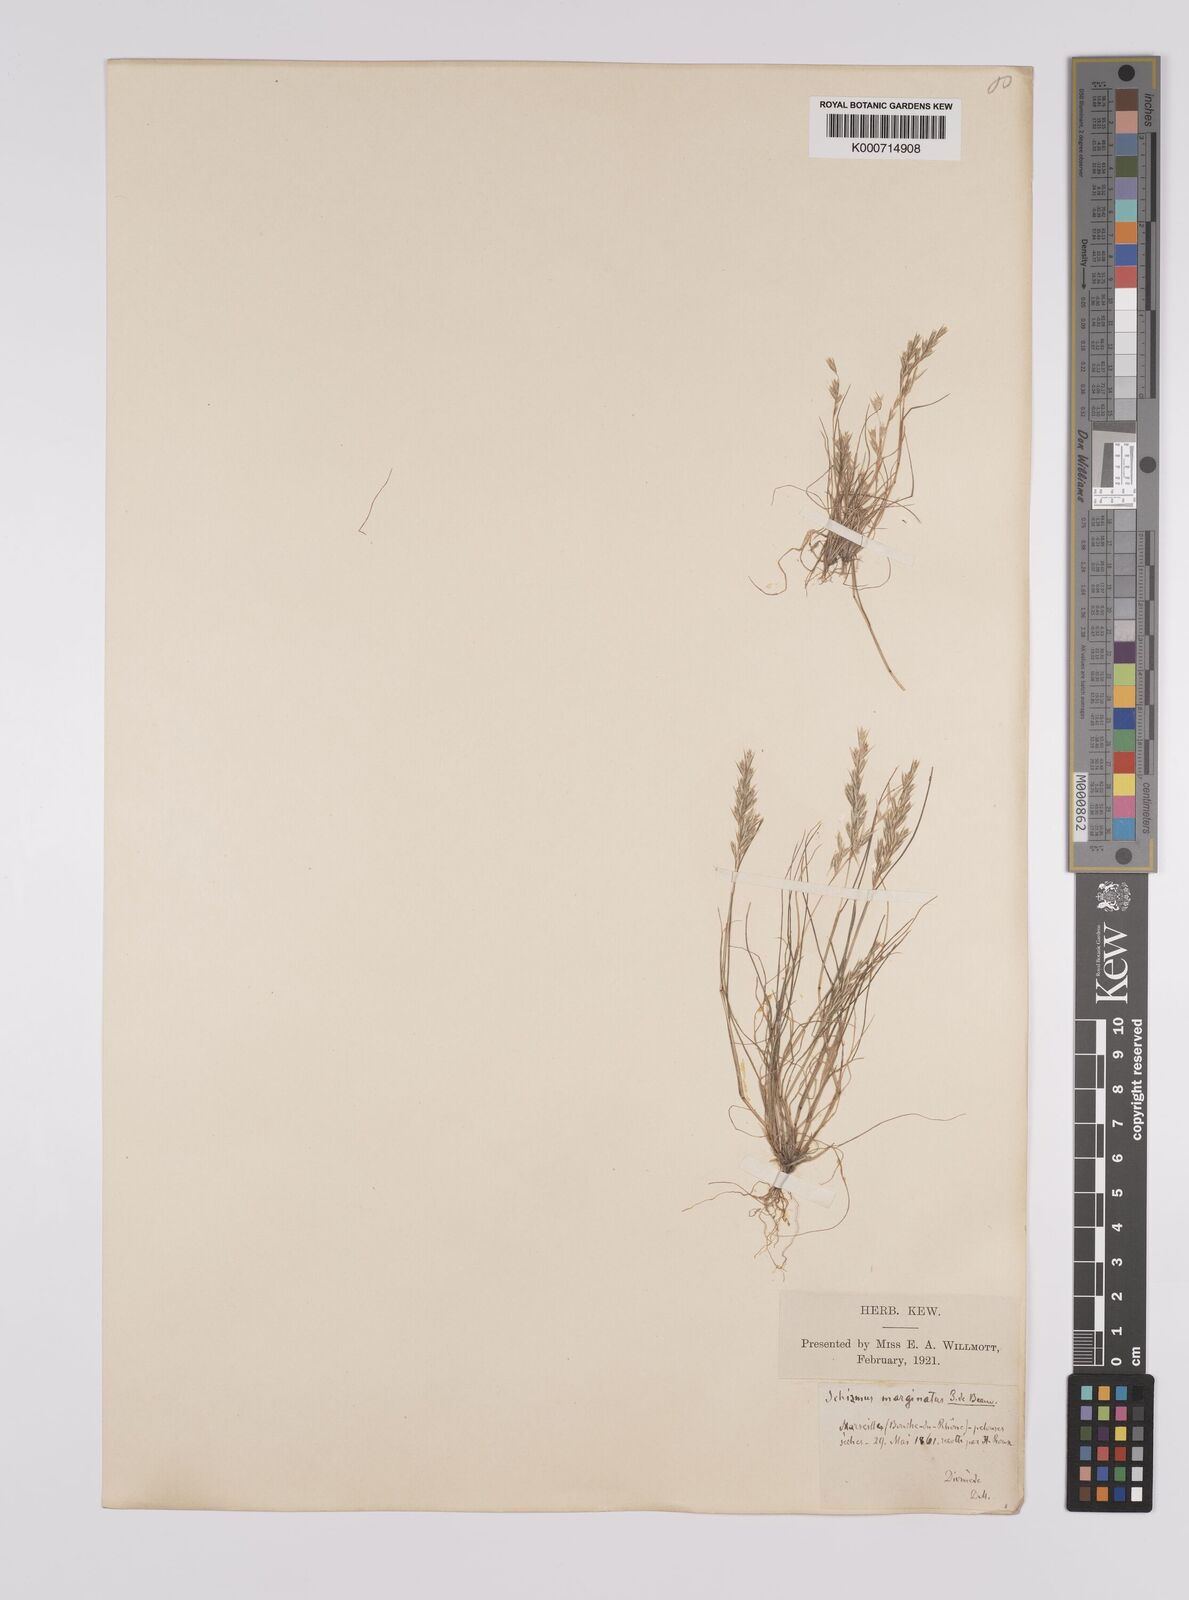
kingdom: Plantae
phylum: Tracheophyta
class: Liliopsida
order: Poales
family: Poaceae
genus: Schismus
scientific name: Schismus barbatus
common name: Kelch-grass
